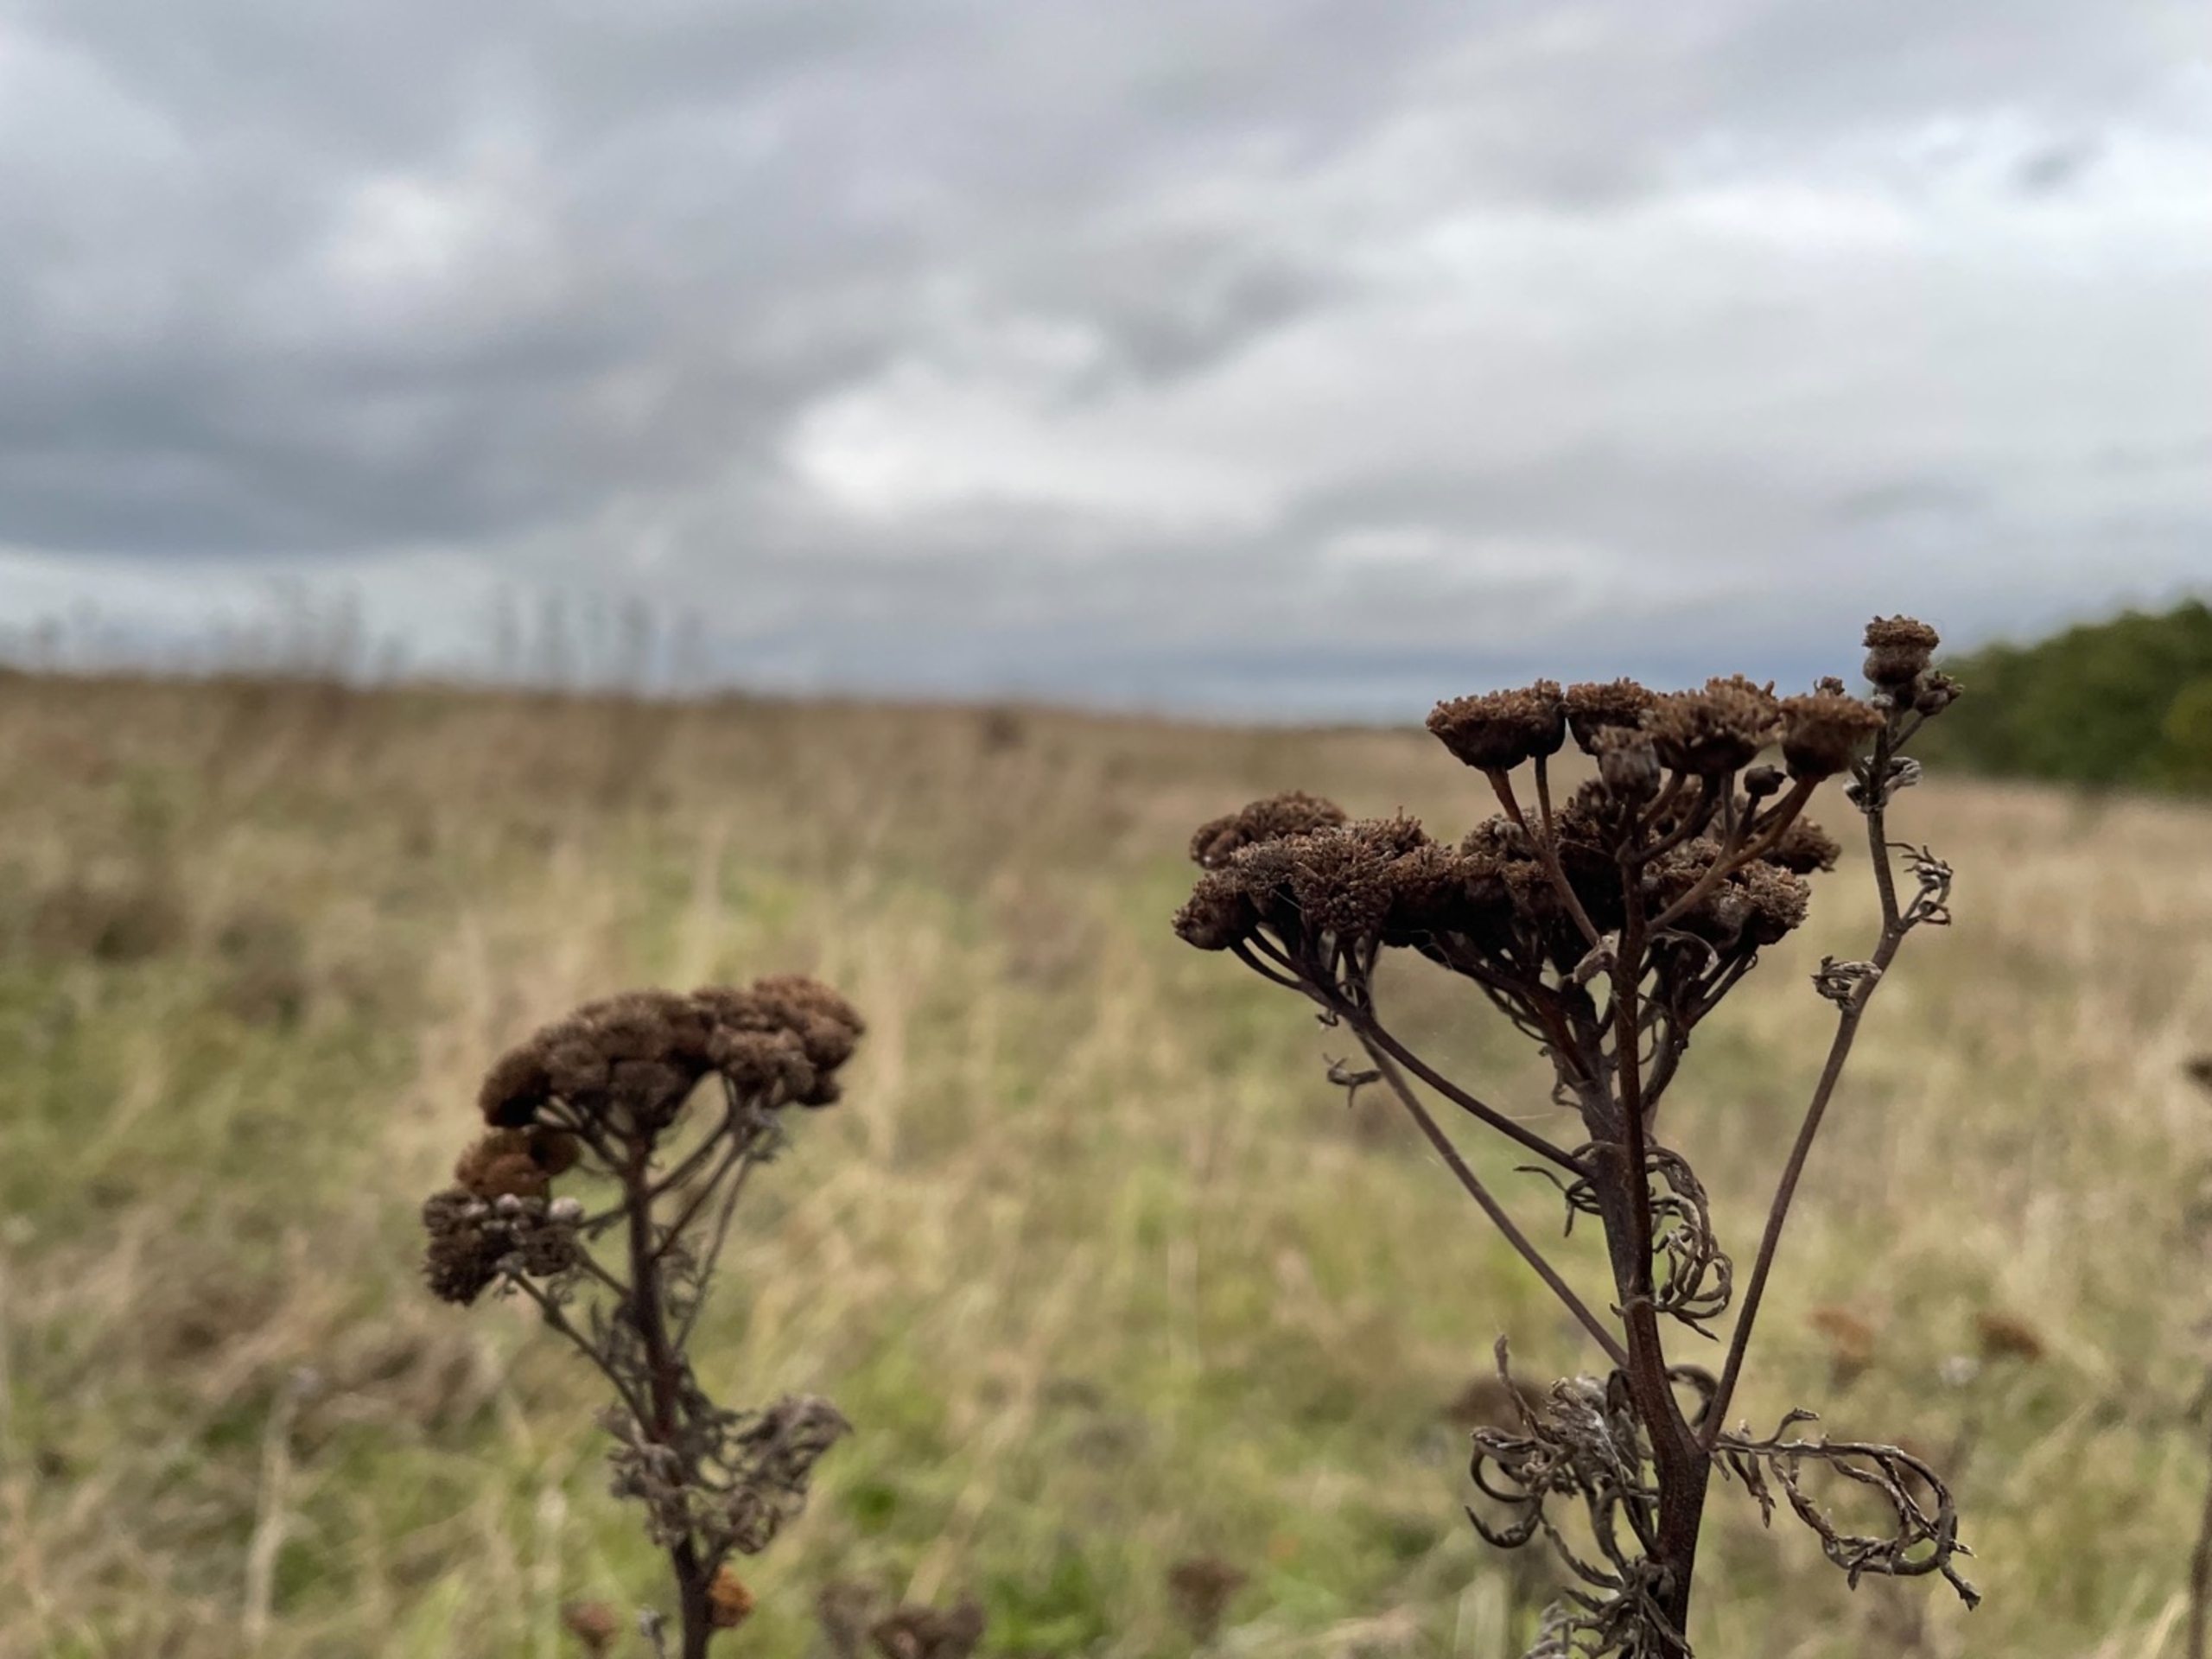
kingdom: Plantae
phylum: Tracheophyta
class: Magnoliopsida
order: Asterales
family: Asteraceae
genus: Tanacetum
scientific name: Tanacetum vulgare
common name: Rejnfan
